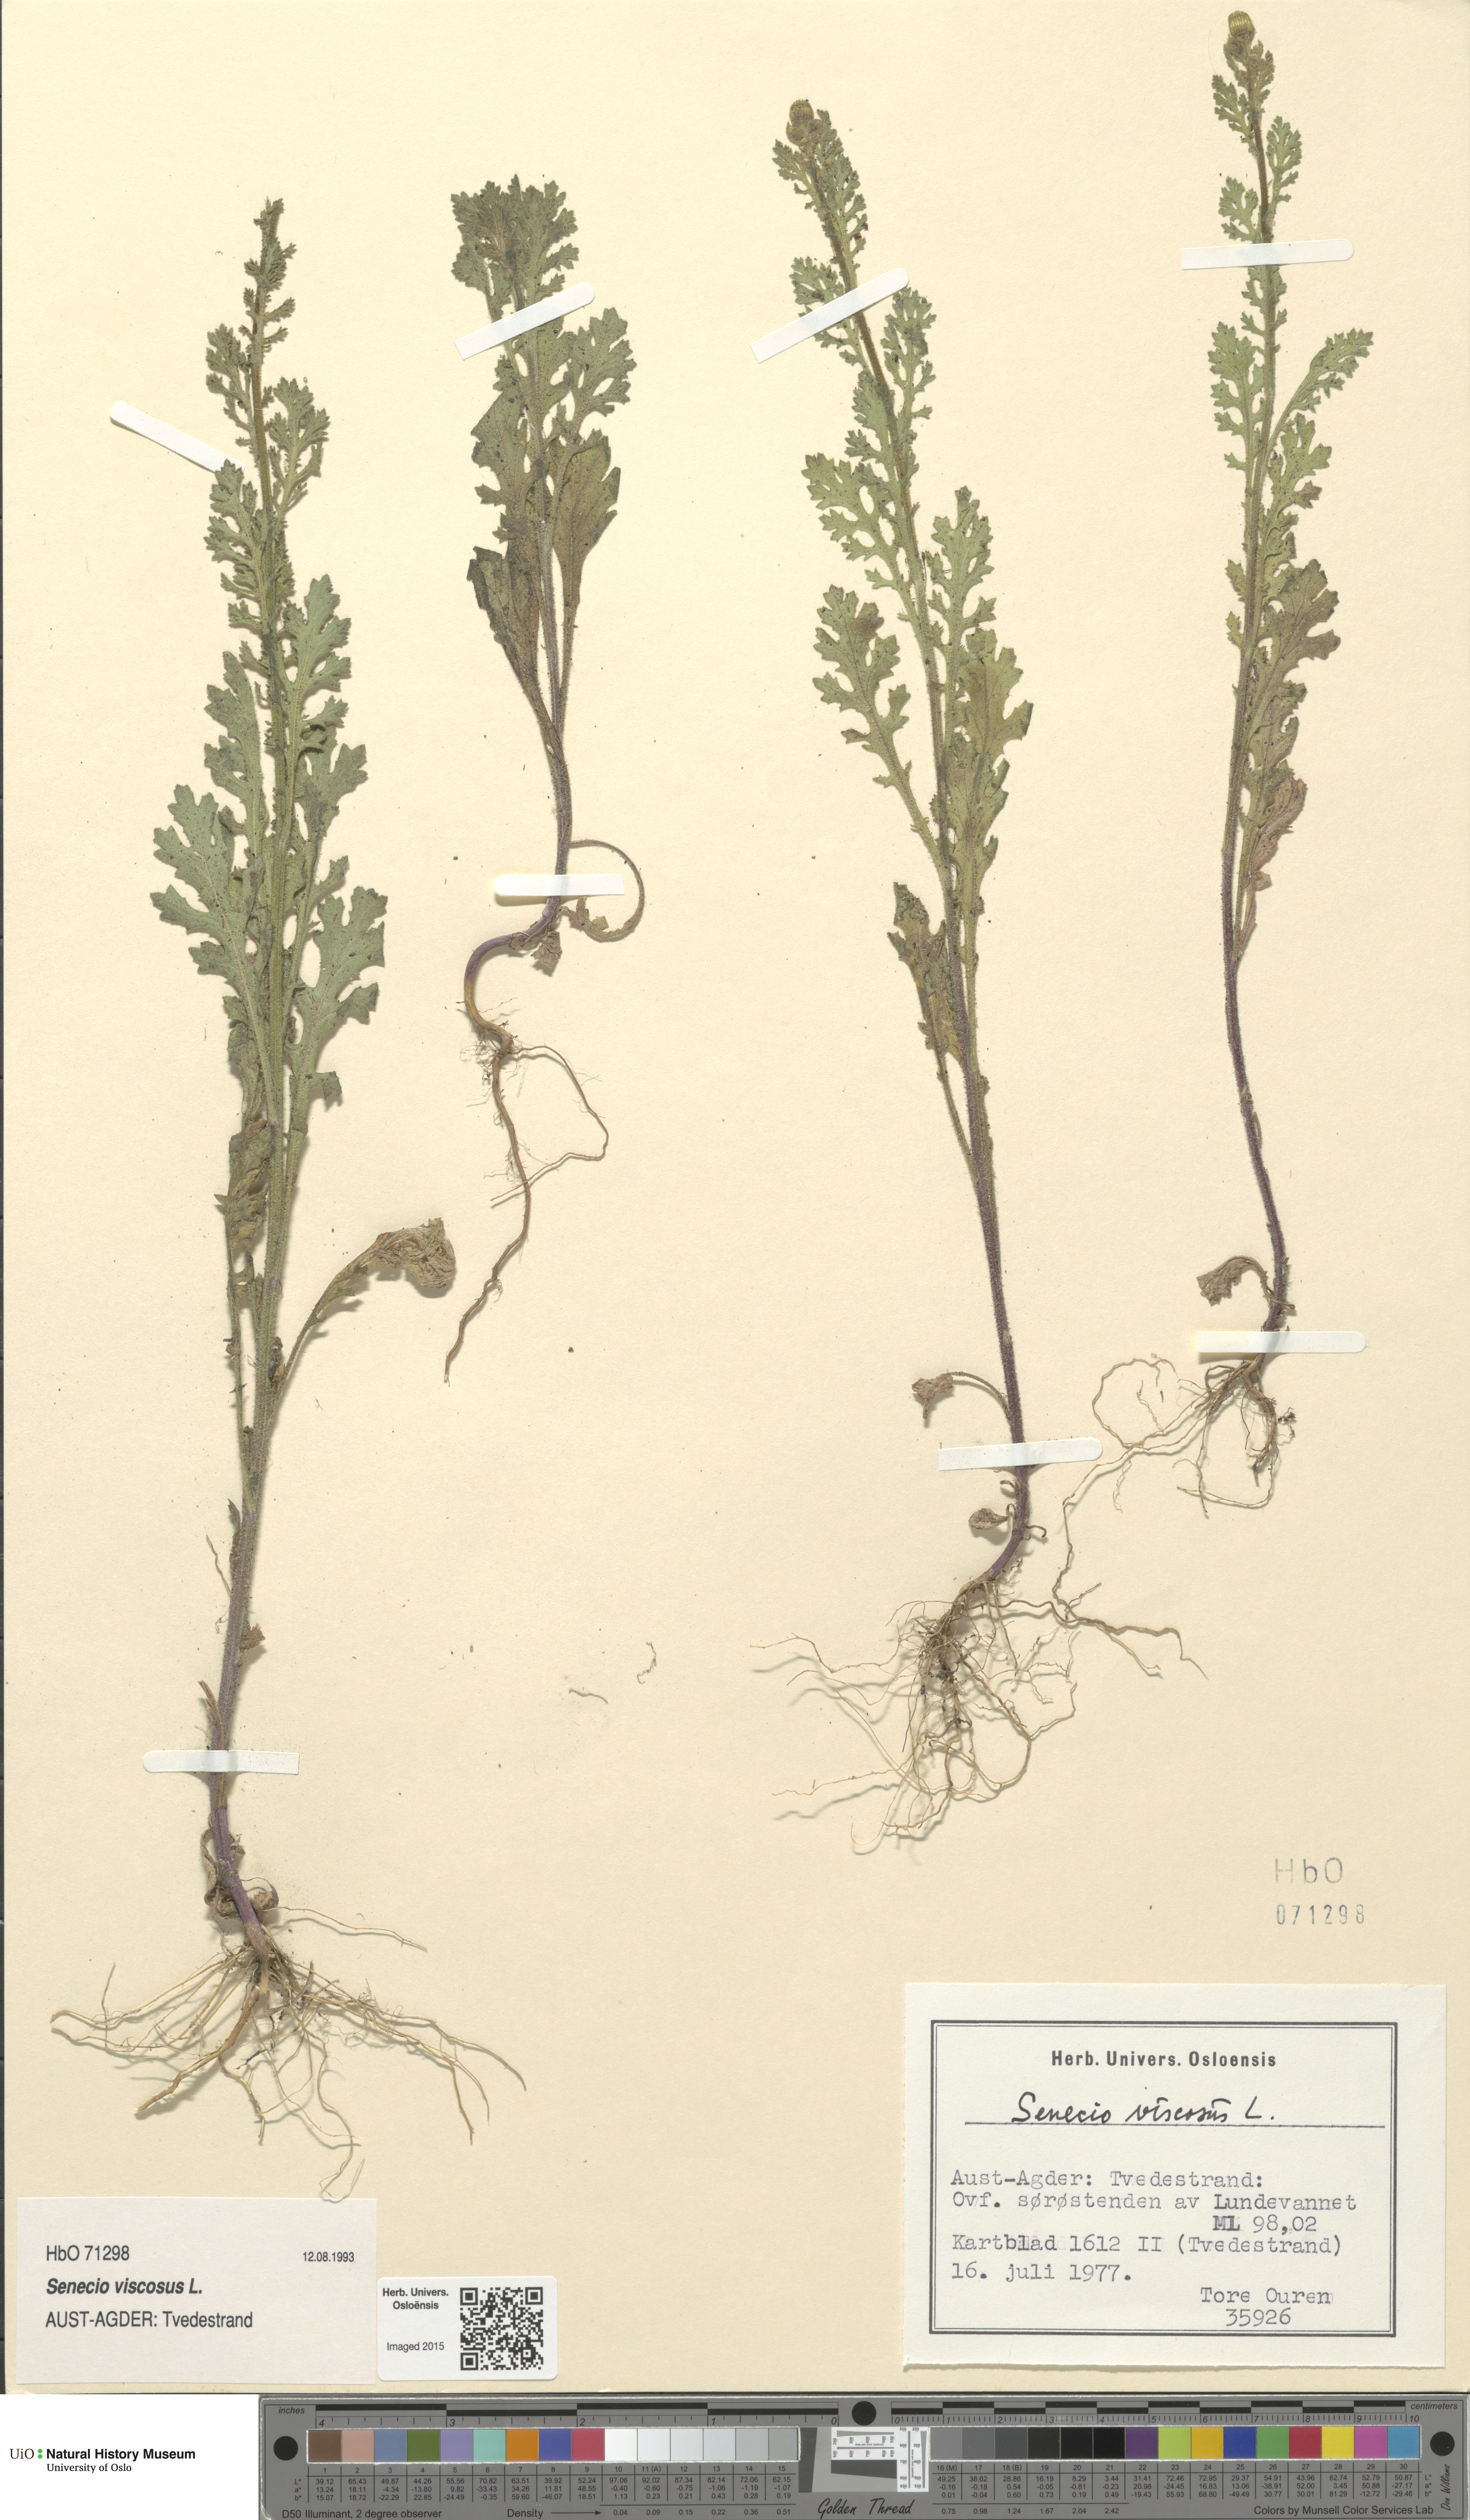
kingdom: Plantae
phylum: Tracheophyta
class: Magnoliopsida
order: Asterales
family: Asteraceae
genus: Senecio
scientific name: Senecio viscosus
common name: Sticky groundsel
